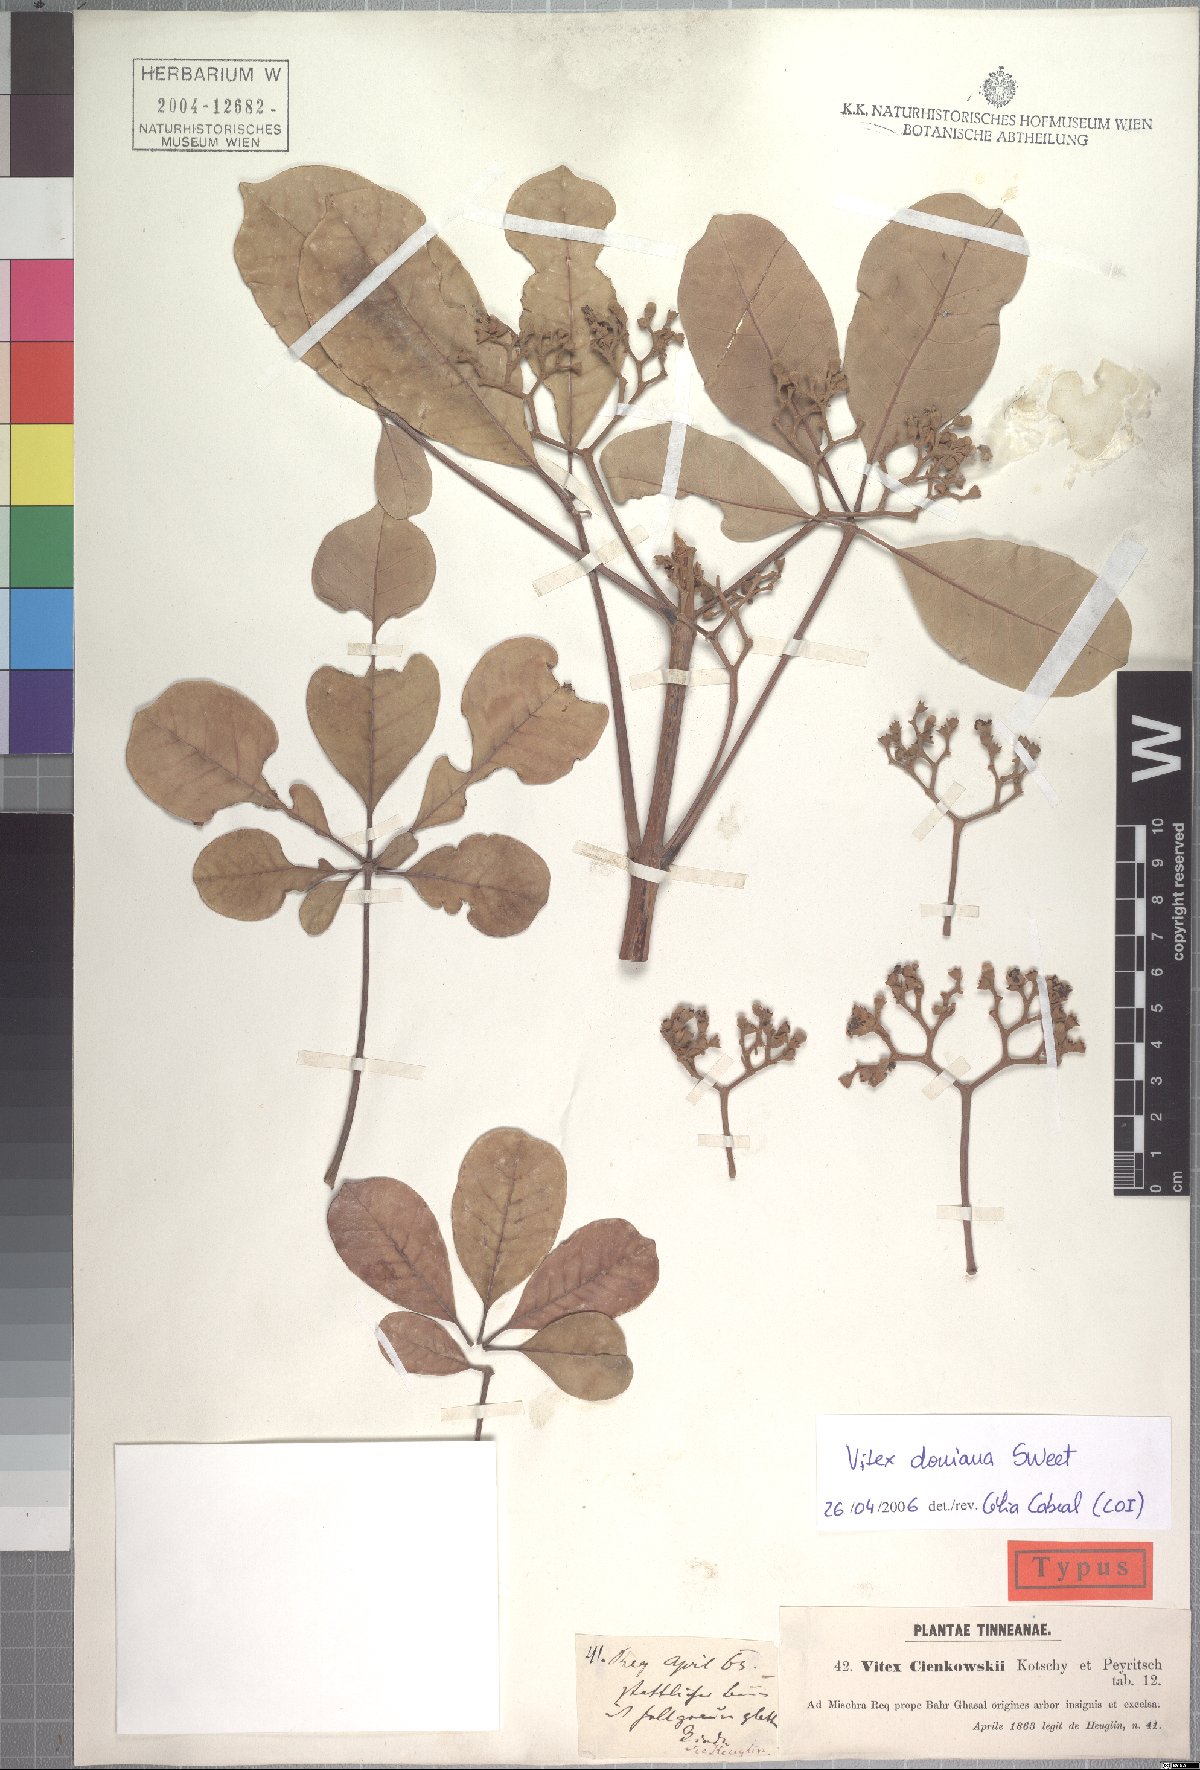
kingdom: Plantae
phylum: Tracheophyta
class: Magnoliopsida
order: Lamiales
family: Lamiaceae
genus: Vitex
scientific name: Vitex doniana
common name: Black plum
